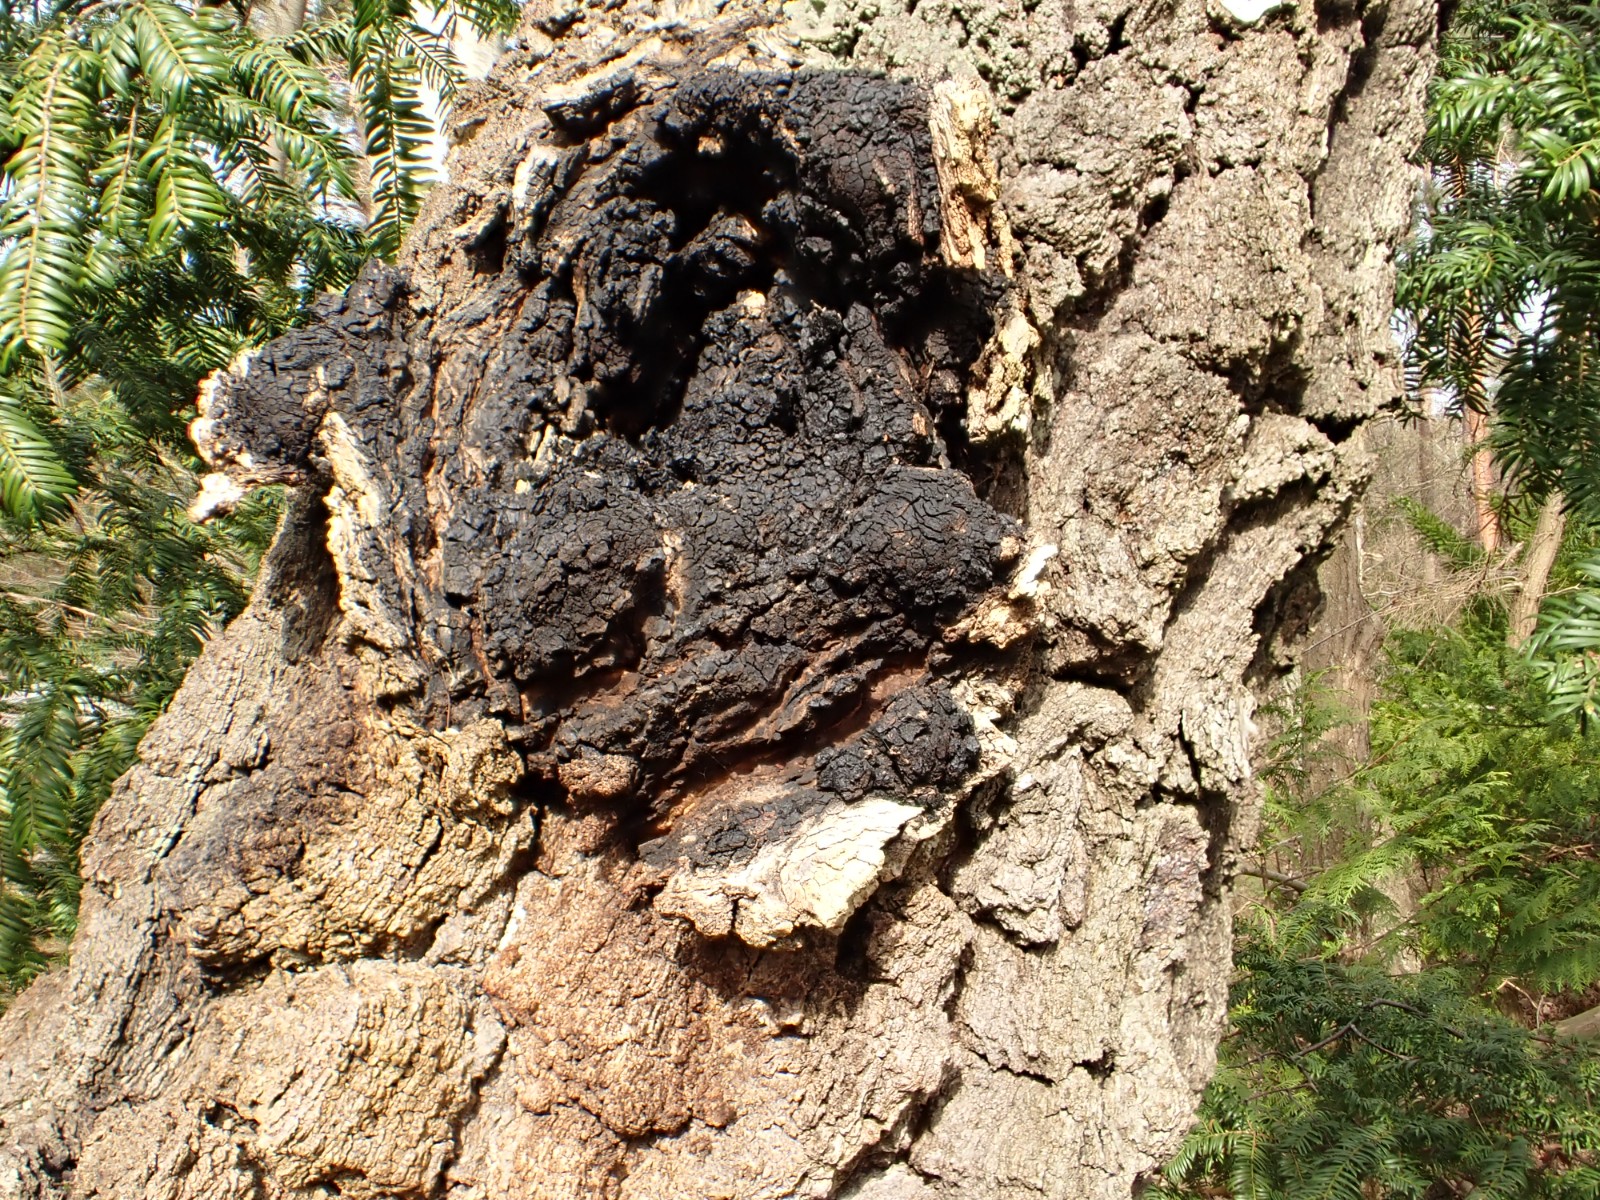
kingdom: Fungi
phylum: Basidiomycota
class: Agaricomycetes
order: Hymenochaetales
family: Hymenochaetaceae
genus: Inonotus
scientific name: Inonotus obliquus
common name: birke-spejlporesvamp
